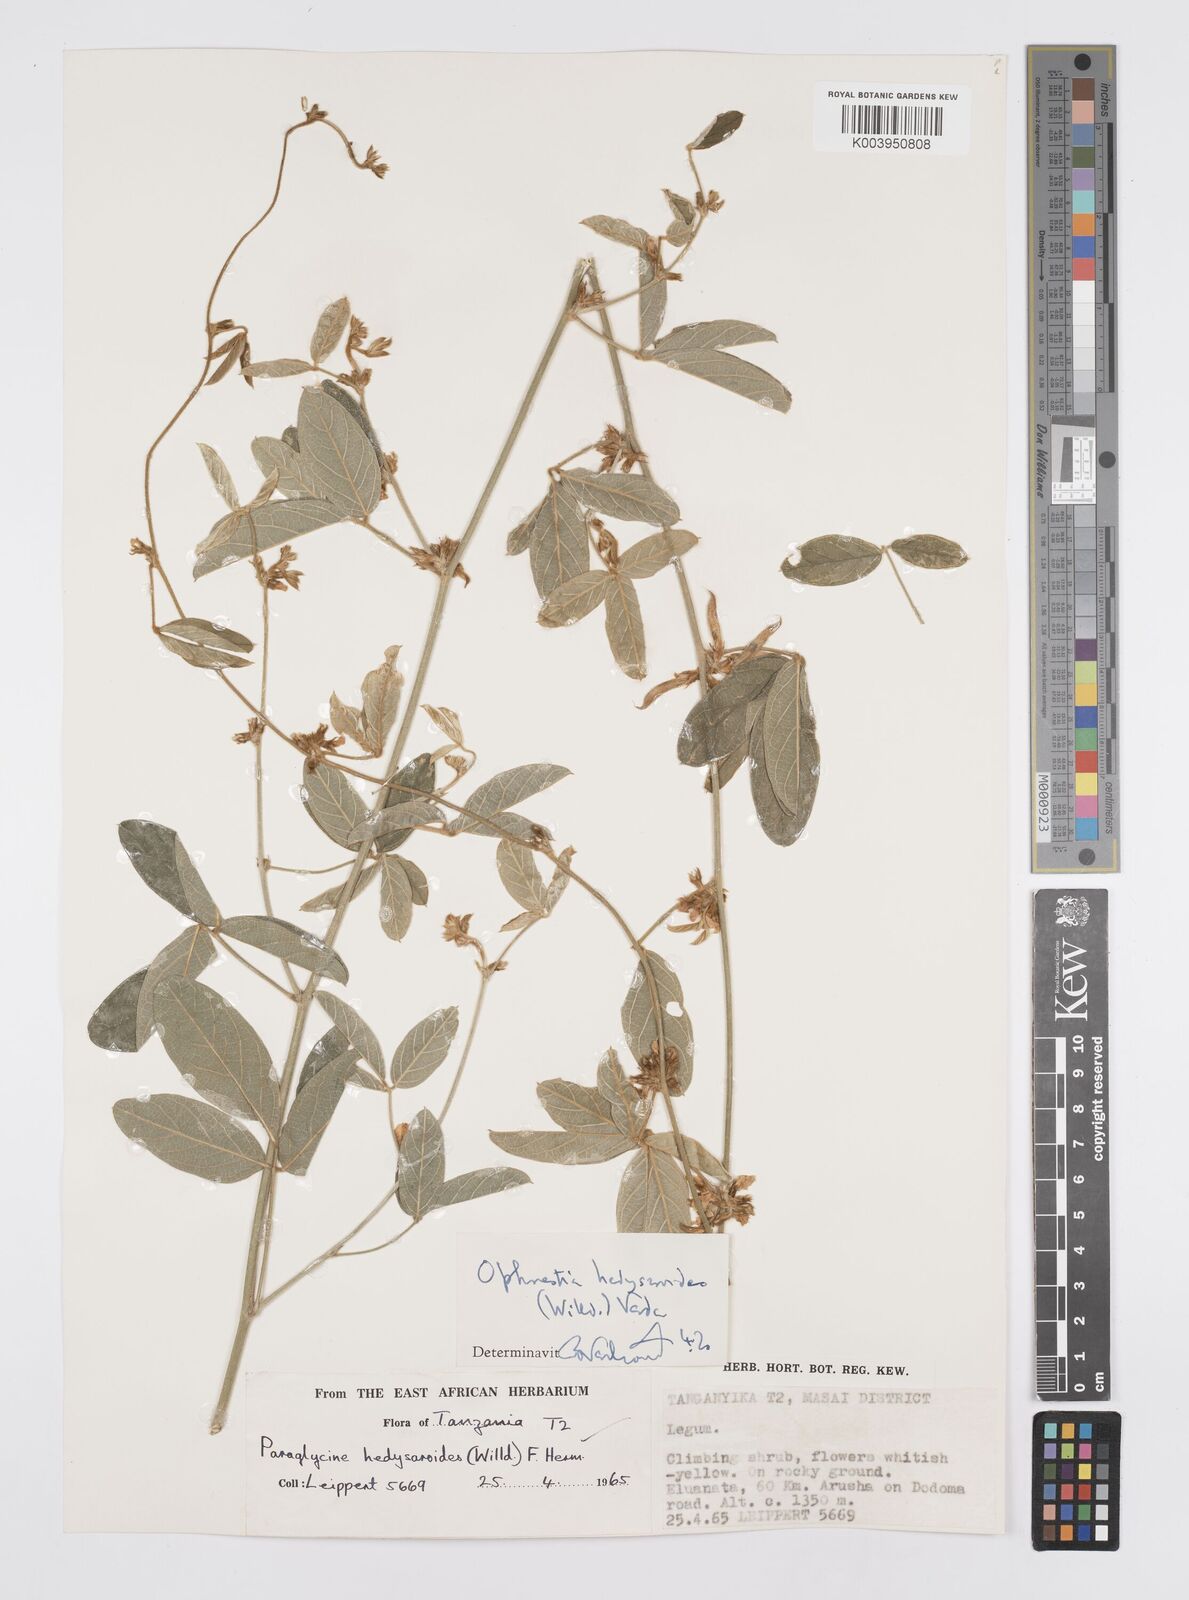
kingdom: Plantae
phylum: Tracheophyta
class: Magnoliopsida
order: Fabales
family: Fabaceae
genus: Ophrestia
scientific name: Ophrestia hedysaroides
